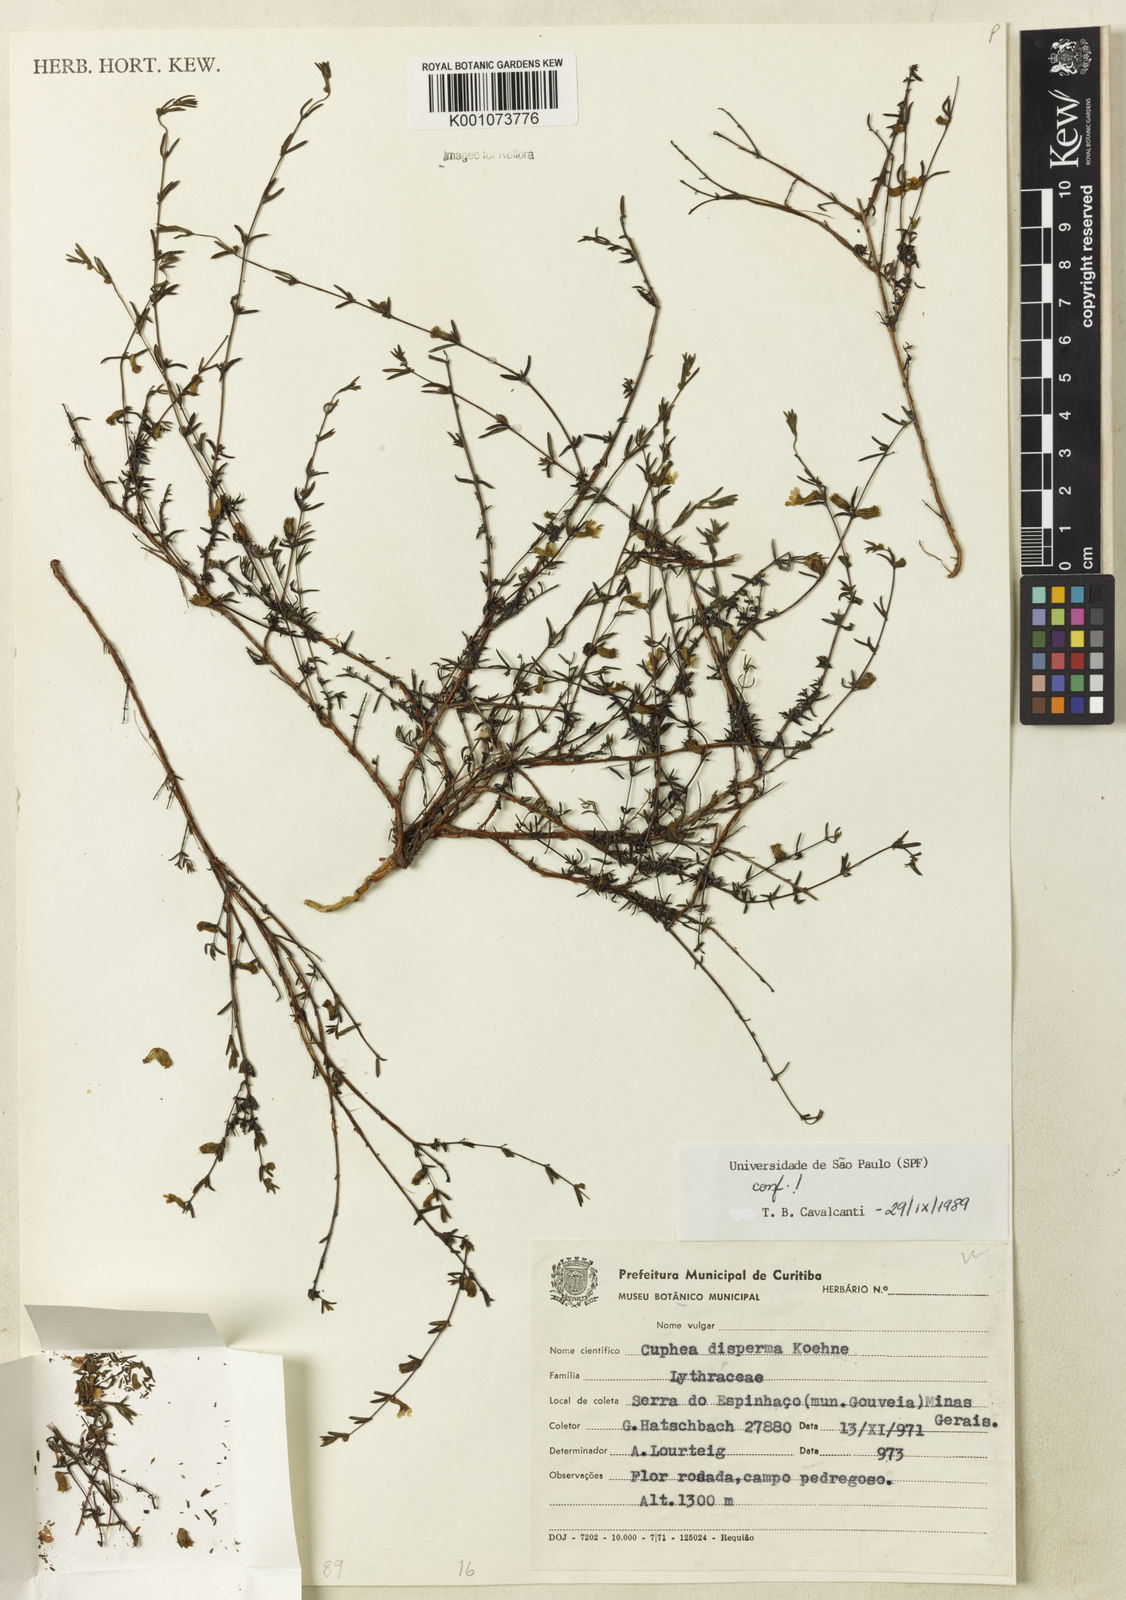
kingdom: Plantae
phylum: Tracheophyta
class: Magnoliopsida
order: Myrtales
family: Lythraceae
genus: Cuphea
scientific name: Cuphea disperma
